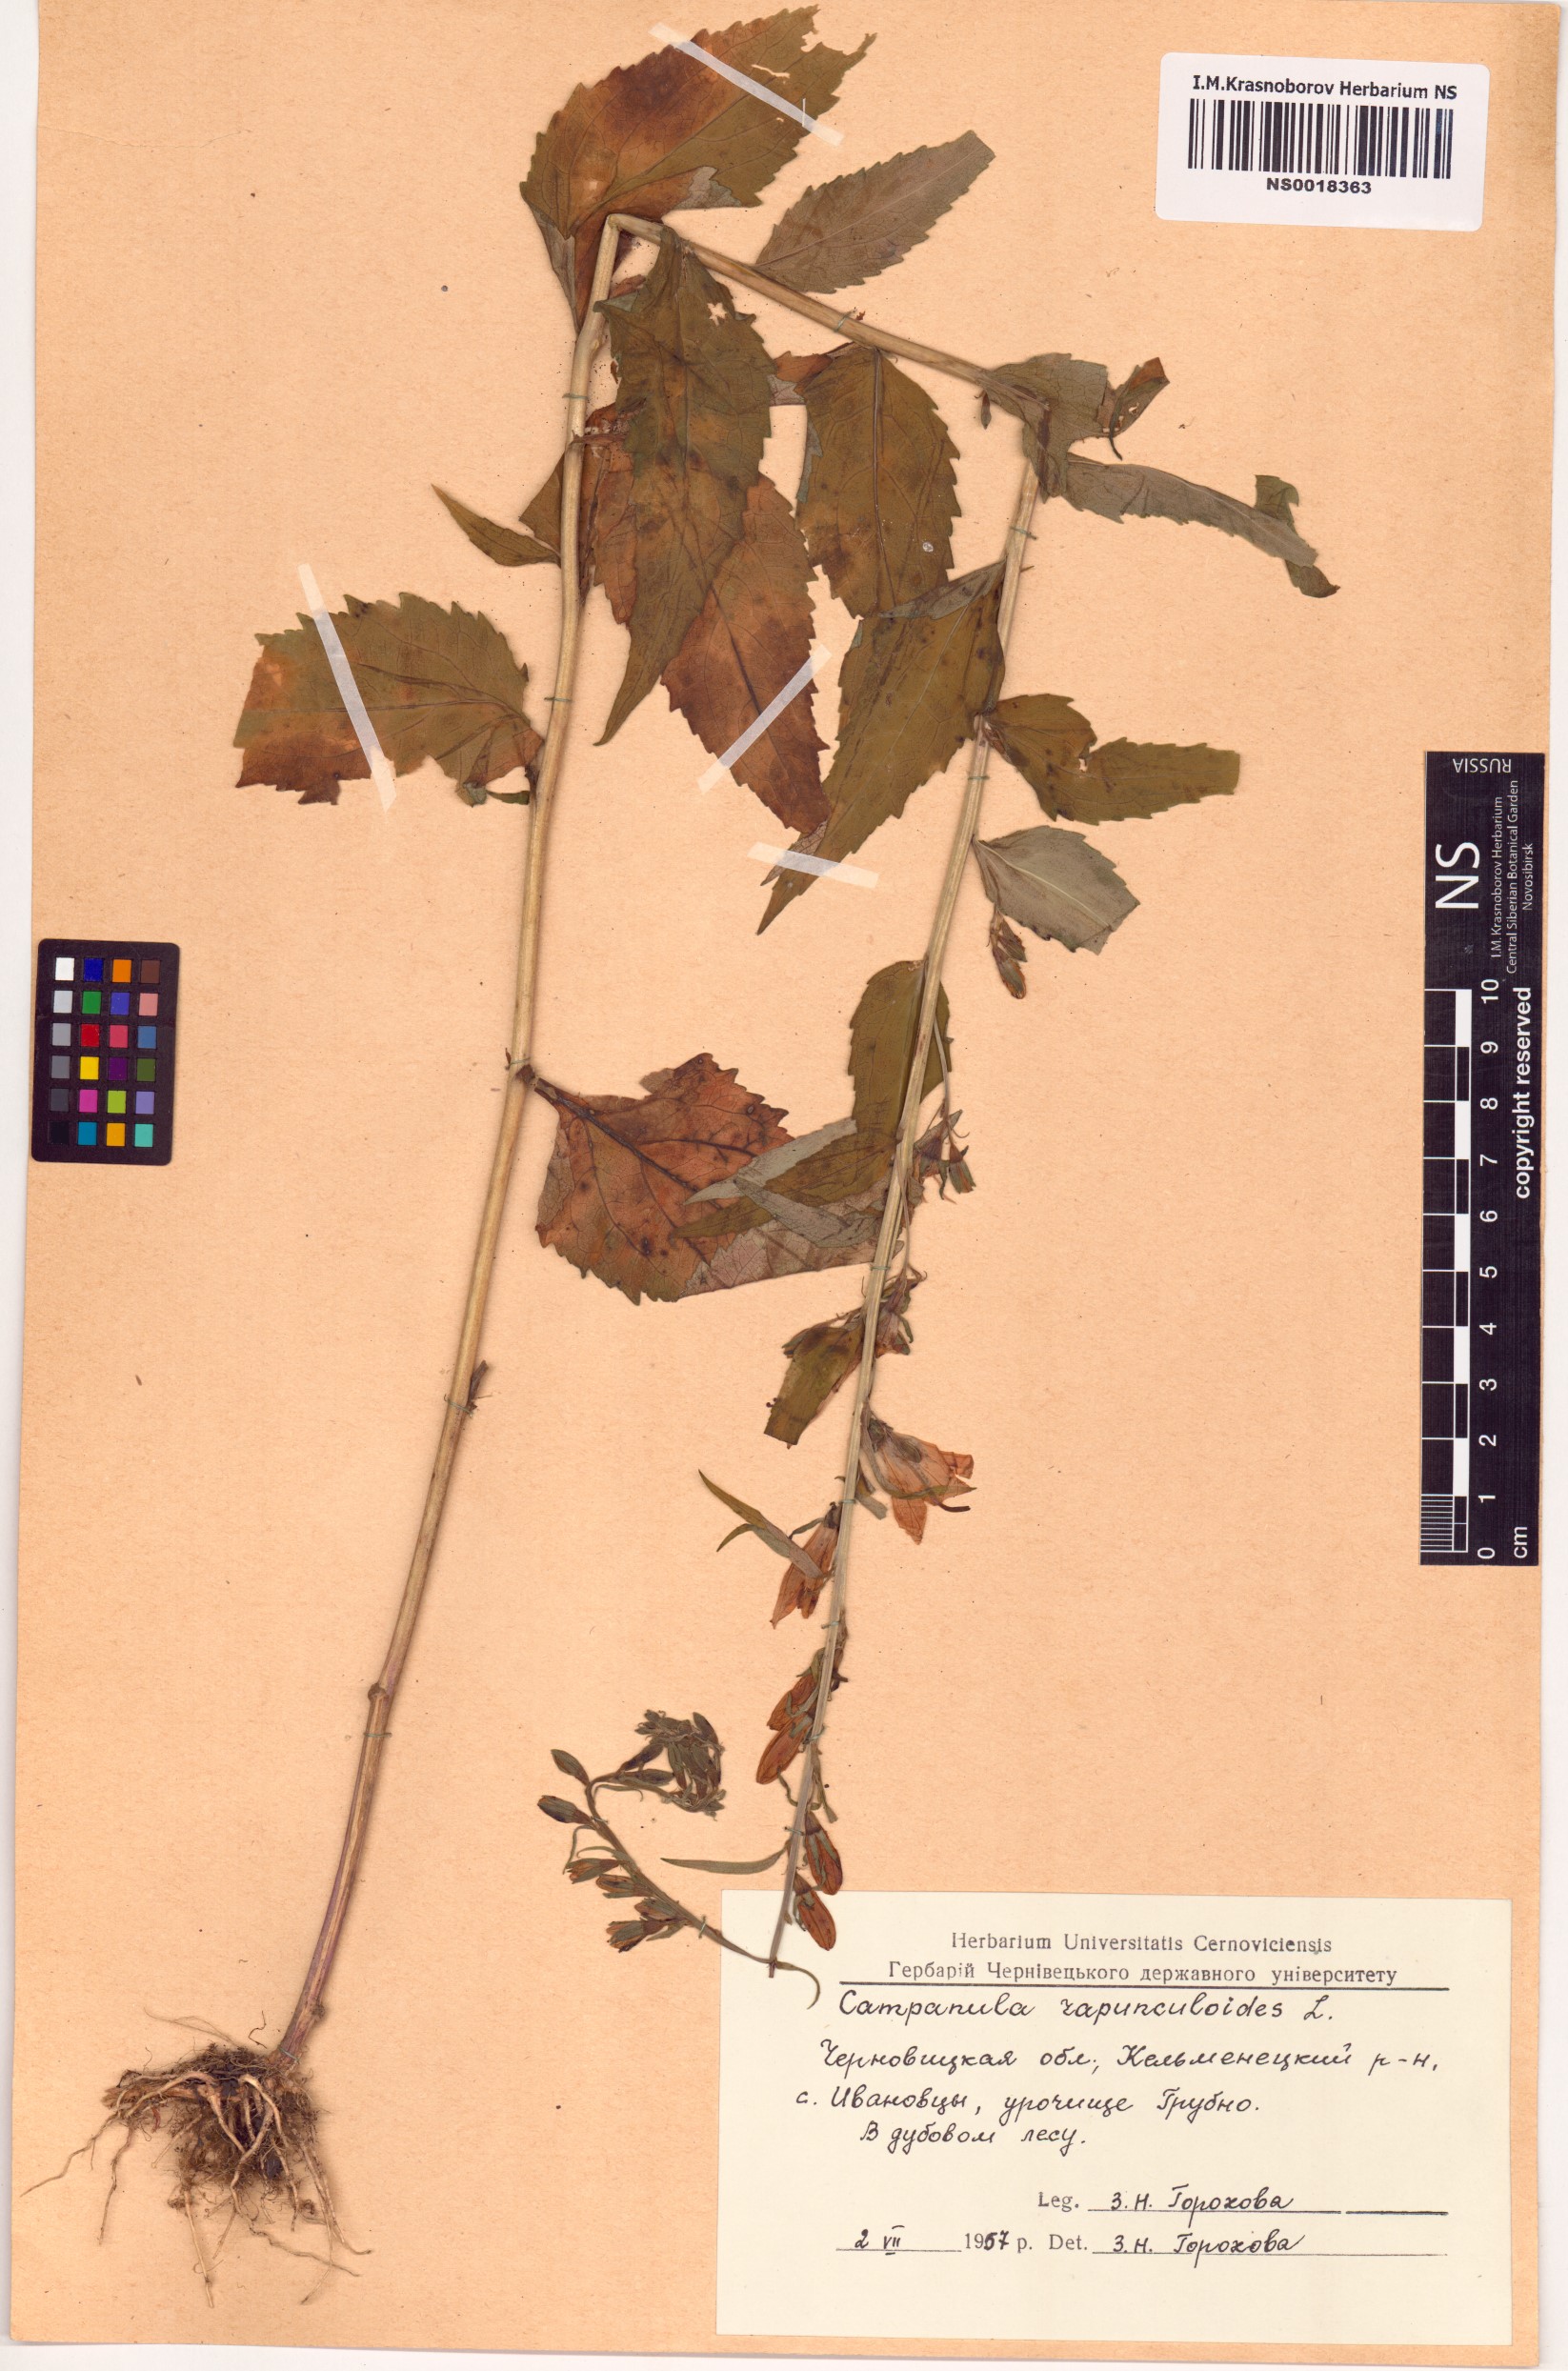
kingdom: Plantae
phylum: Tracheophyta
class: Magnoliopsida
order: Asterales
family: Campanulaceae
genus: Campanula
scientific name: Campanula rapunculoides
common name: Creeping bellflower
